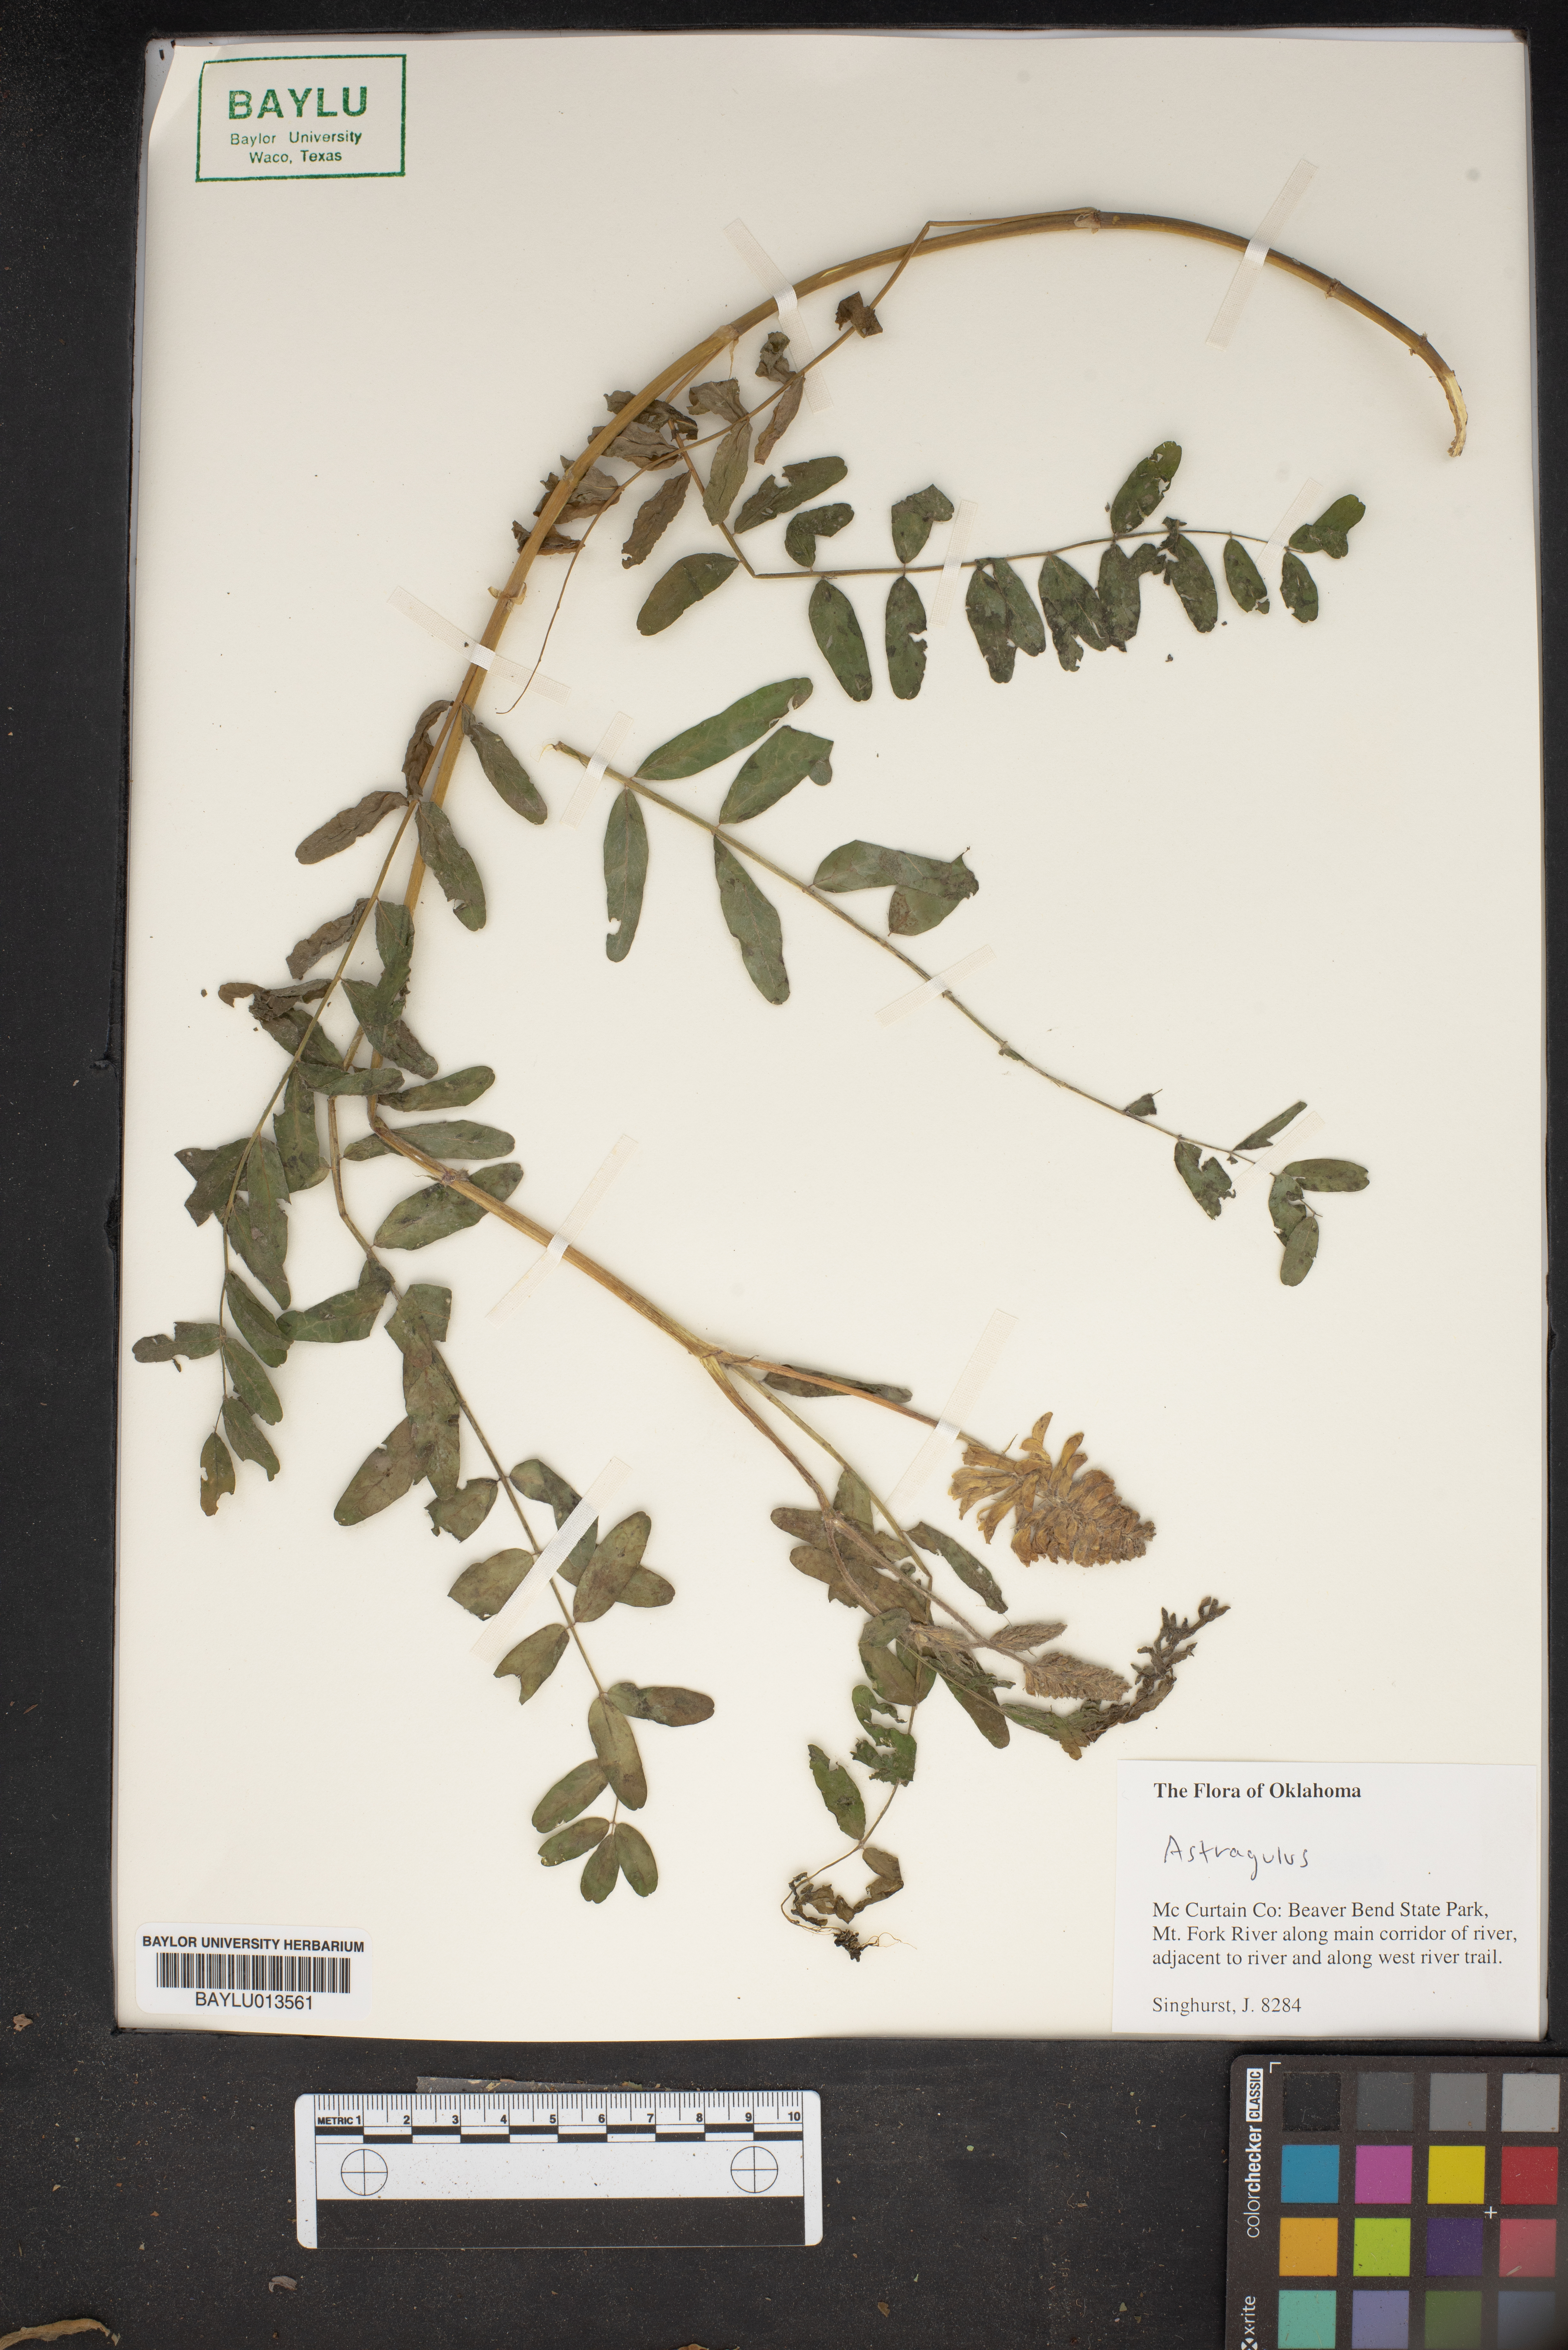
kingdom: Plantae
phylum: Tracheophyta
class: Magnoliopsida
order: Fabales
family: Fabaceae
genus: Astragalus
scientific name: Astragalus
